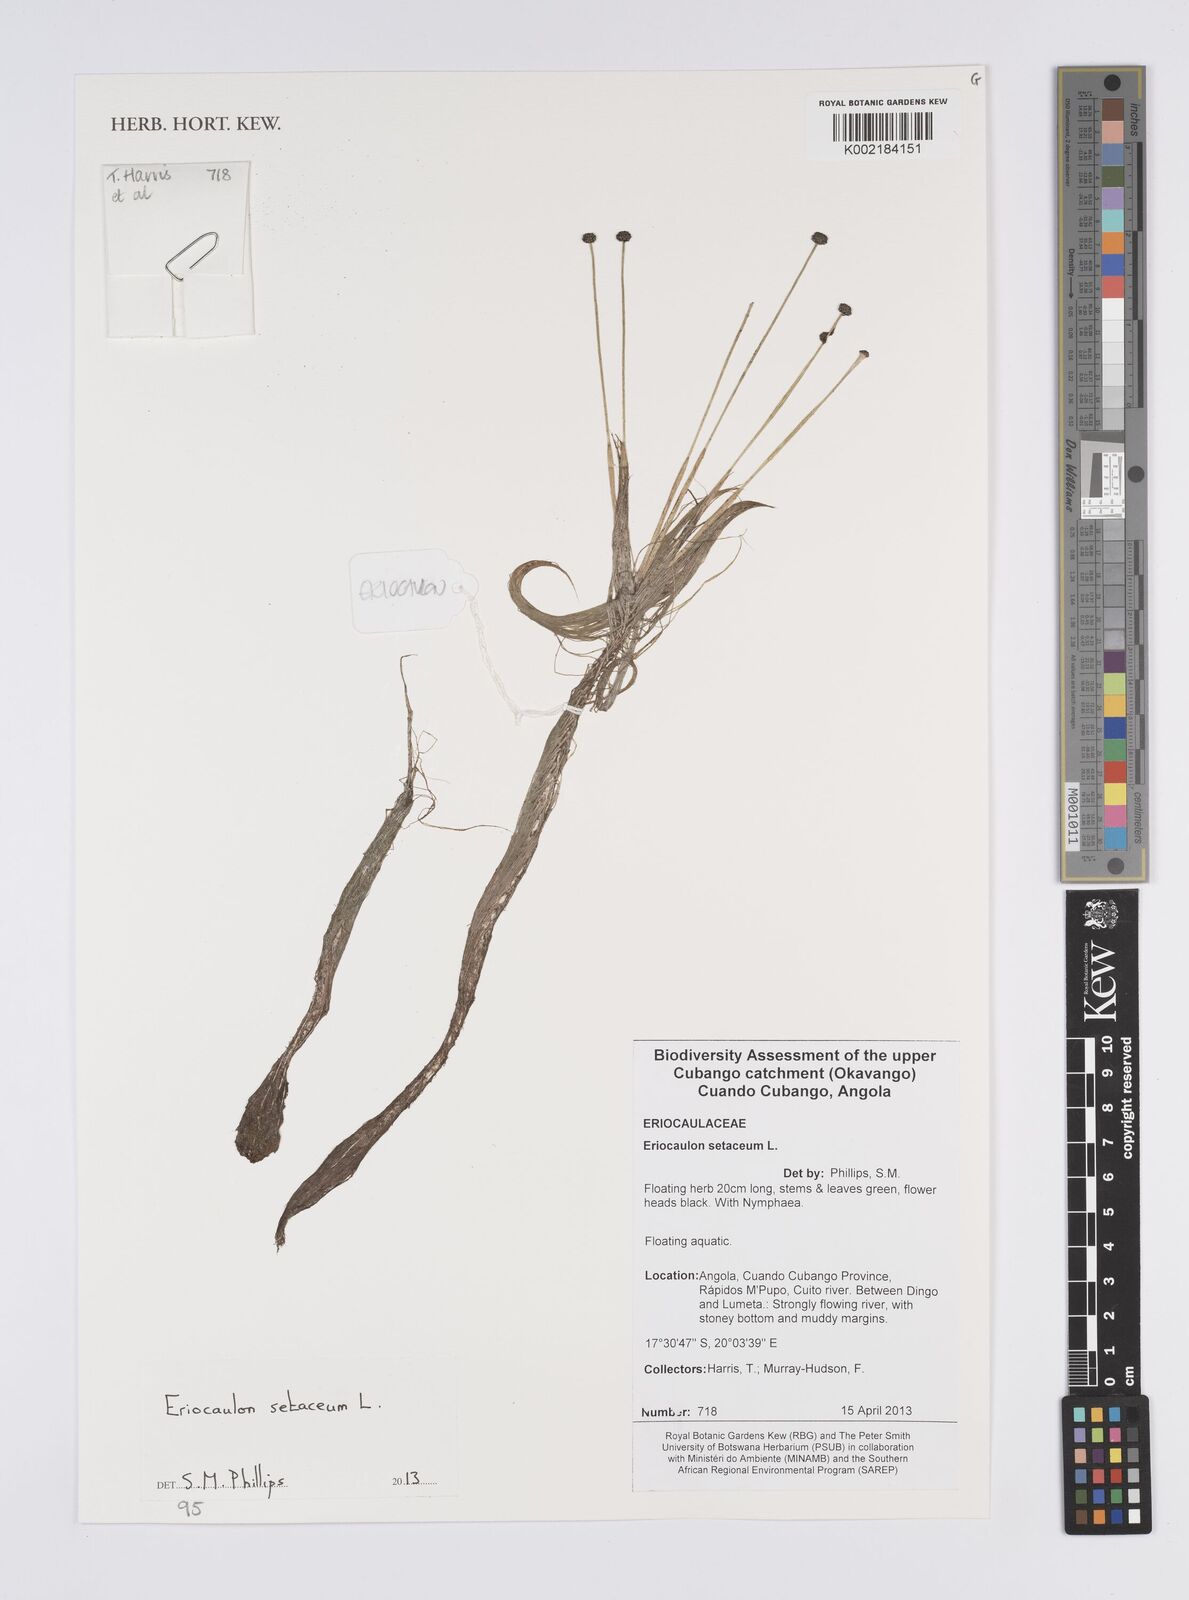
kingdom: Plantae
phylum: Tracheophyta
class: Liliopsida
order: Poales
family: Eriocaulaceae
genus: Eriocaulon
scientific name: Eriocaulon setaceum
